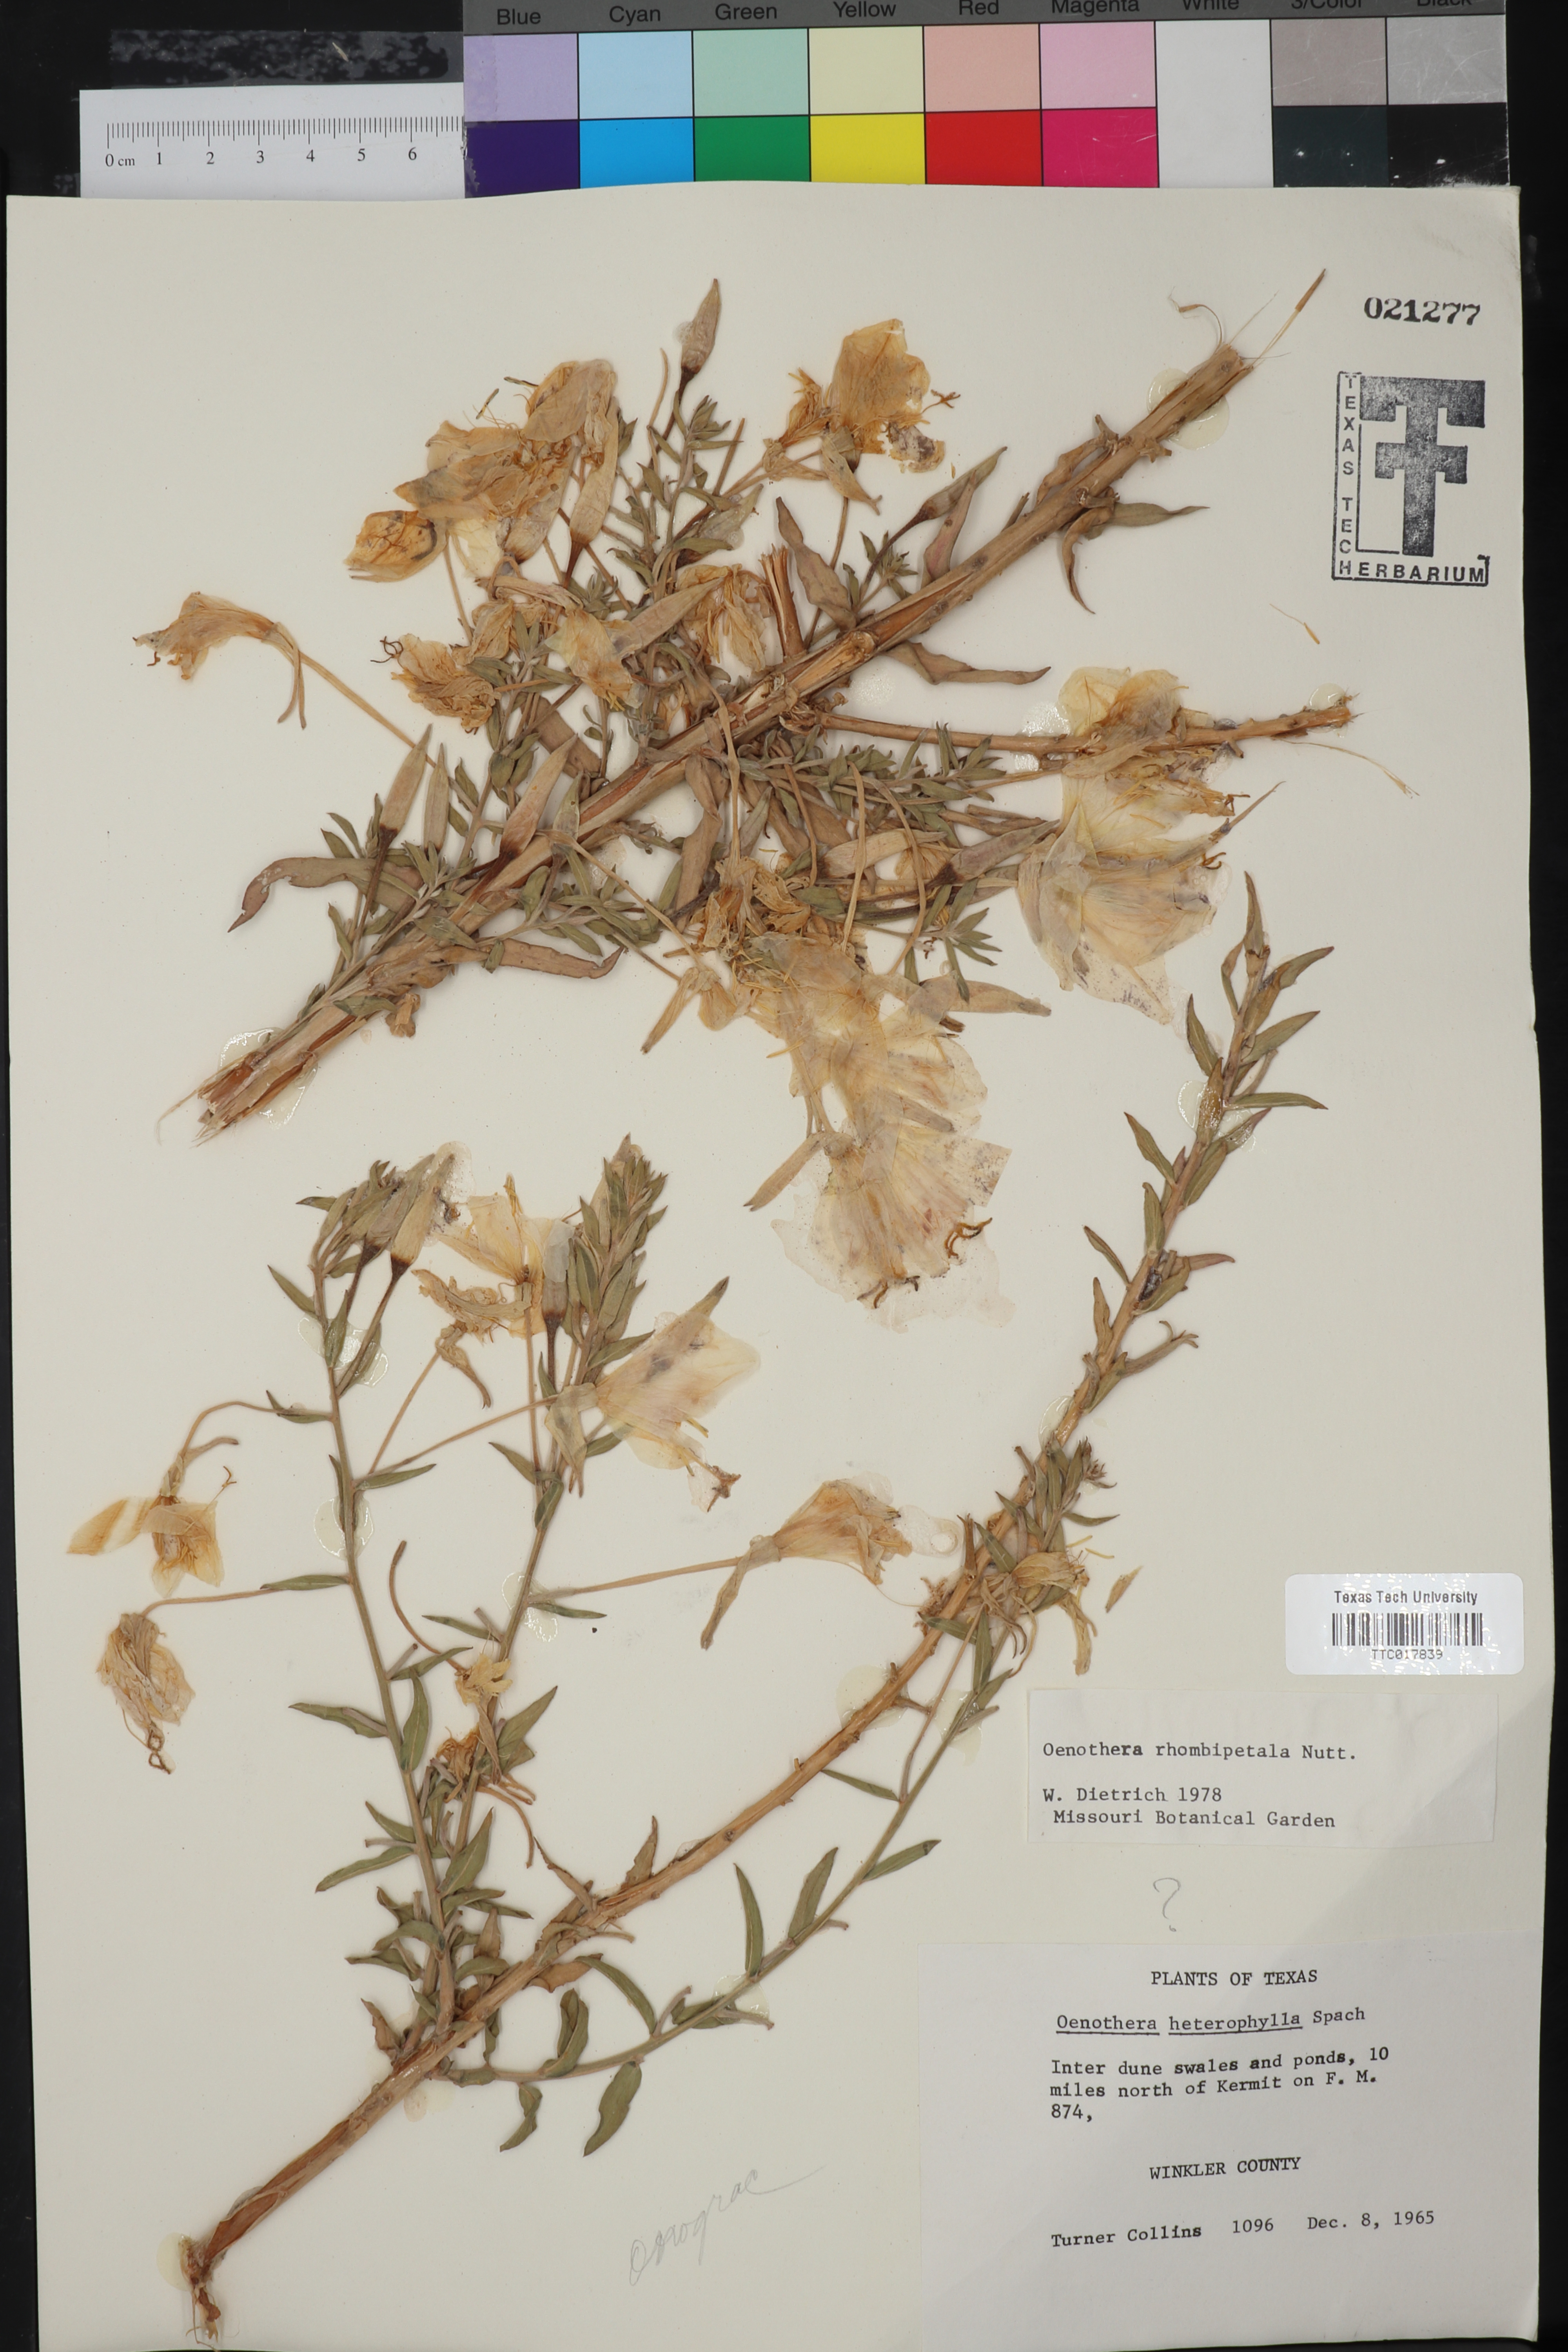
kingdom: Plantae
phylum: Tracheophyta
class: Magnoliopsida
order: Myrtales
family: Onagraceae
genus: Oenothera
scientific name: Oenothera rhombipetala
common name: Four-points evening-primrose
